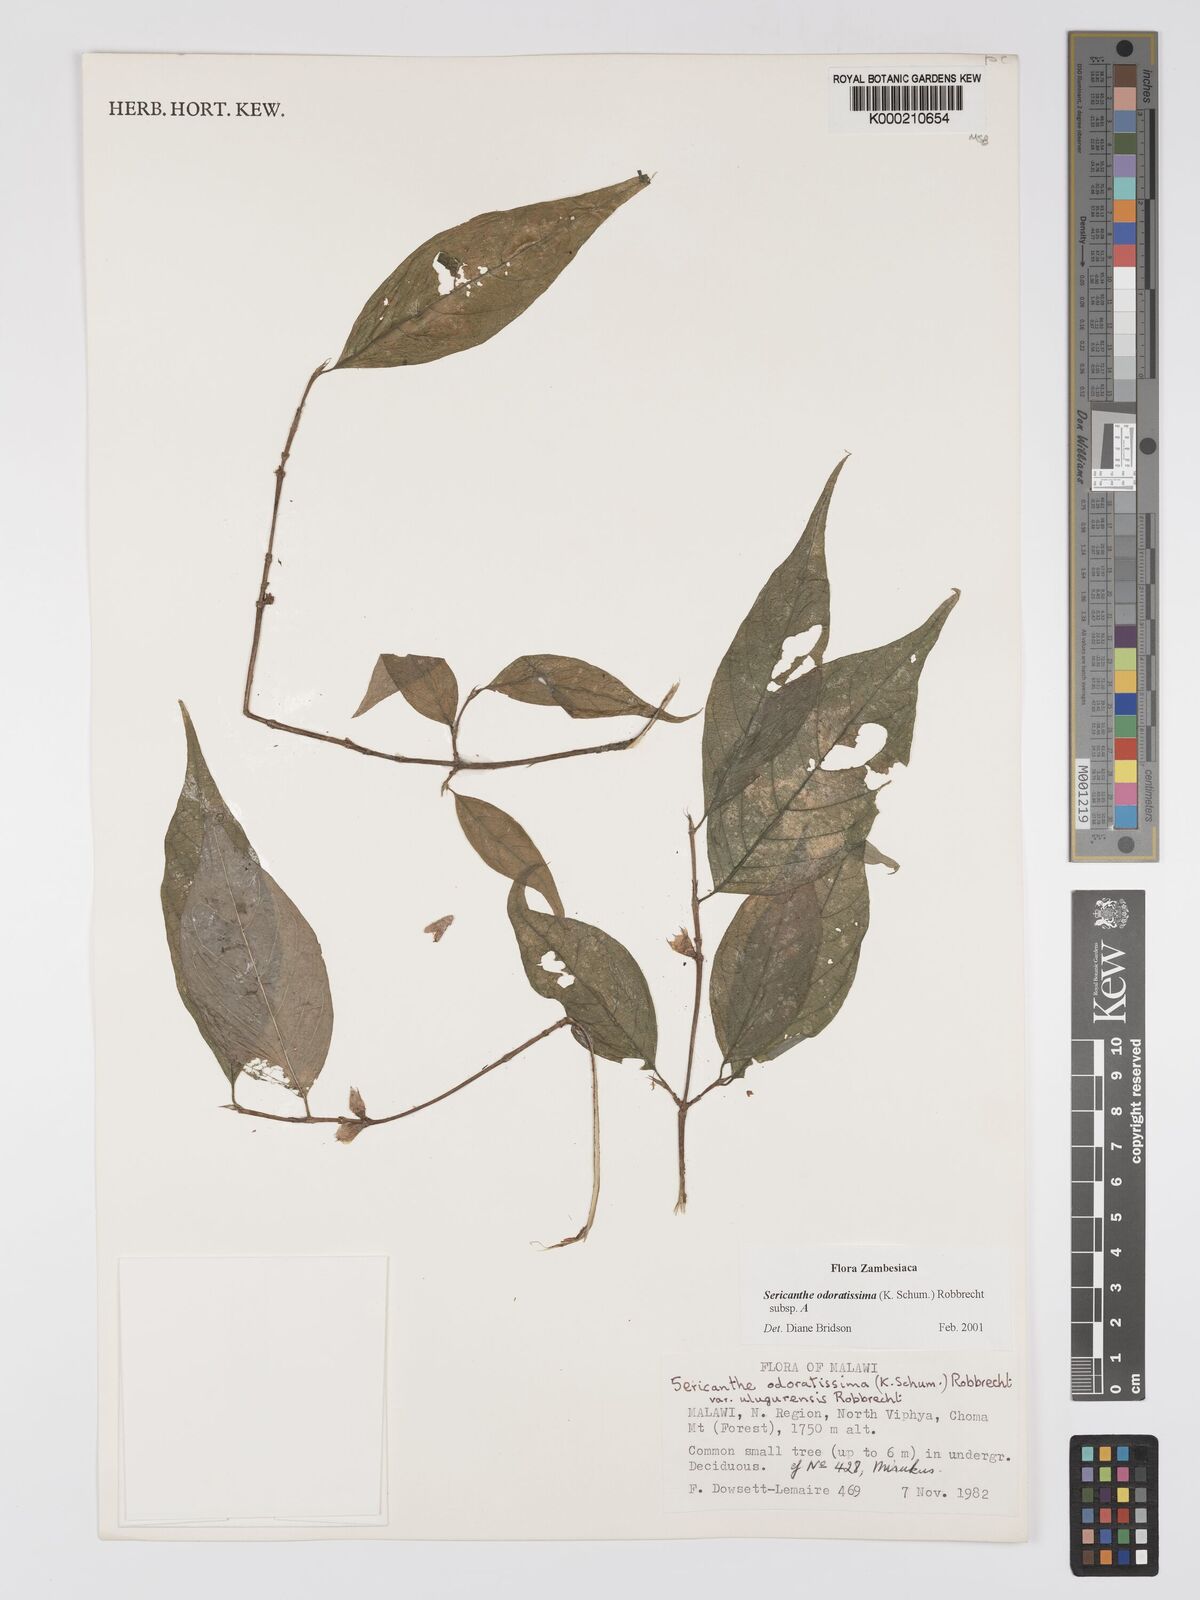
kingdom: Plantae
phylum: Tracheophyta
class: Magnoliopsida
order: Gentianales
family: Rubiaceae
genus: Sericanthe
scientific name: Sericanthe odoratissima
